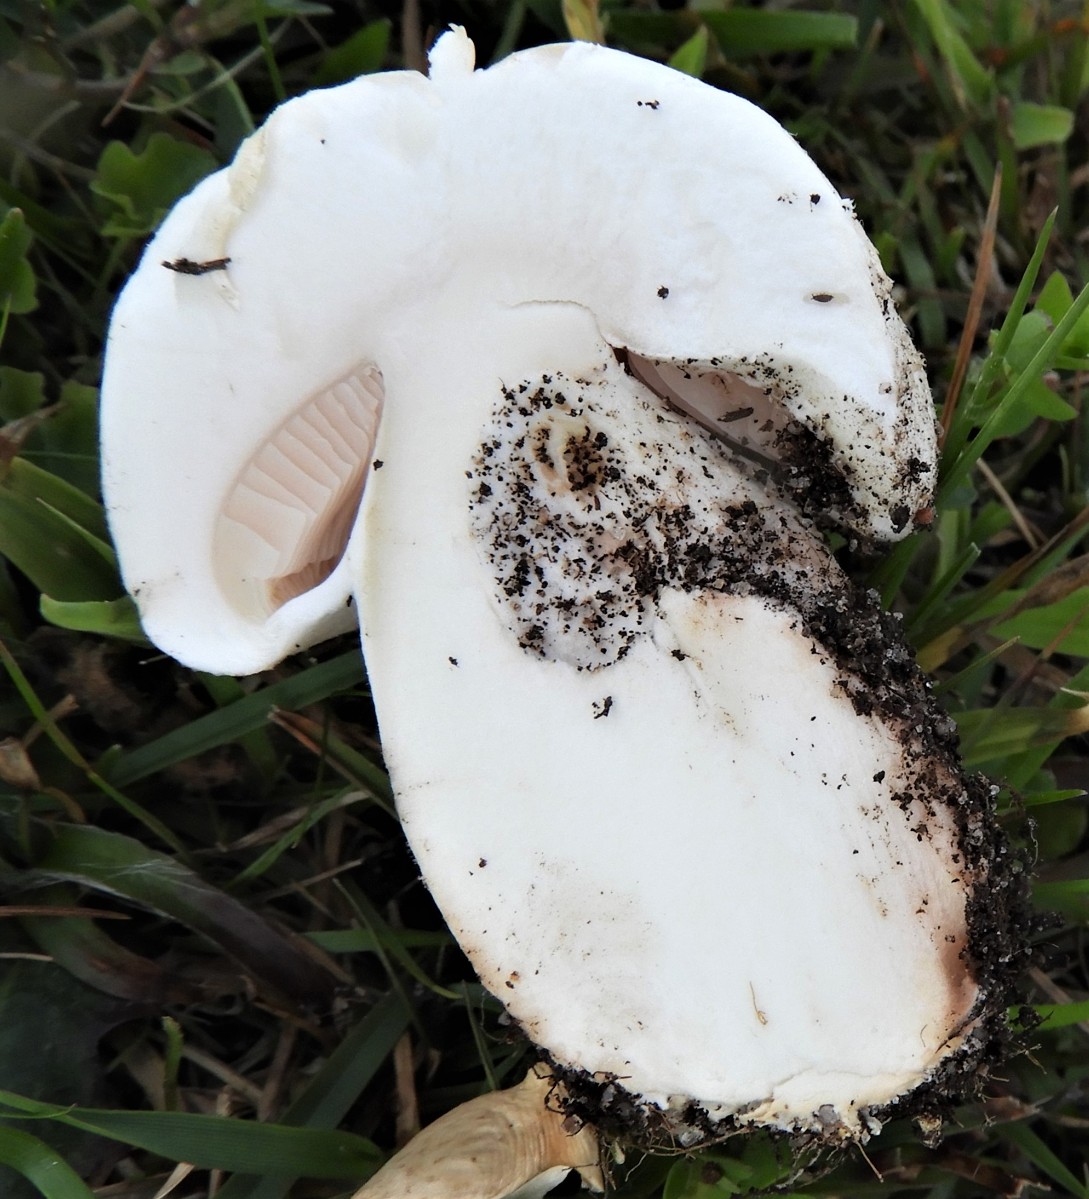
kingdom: Fungi
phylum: Basidiomycota
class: Agaricomycetes
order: Agaricales
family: Agaricaceae
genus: Agaricus
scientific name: Agaricus campestris
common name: mark-champignon
